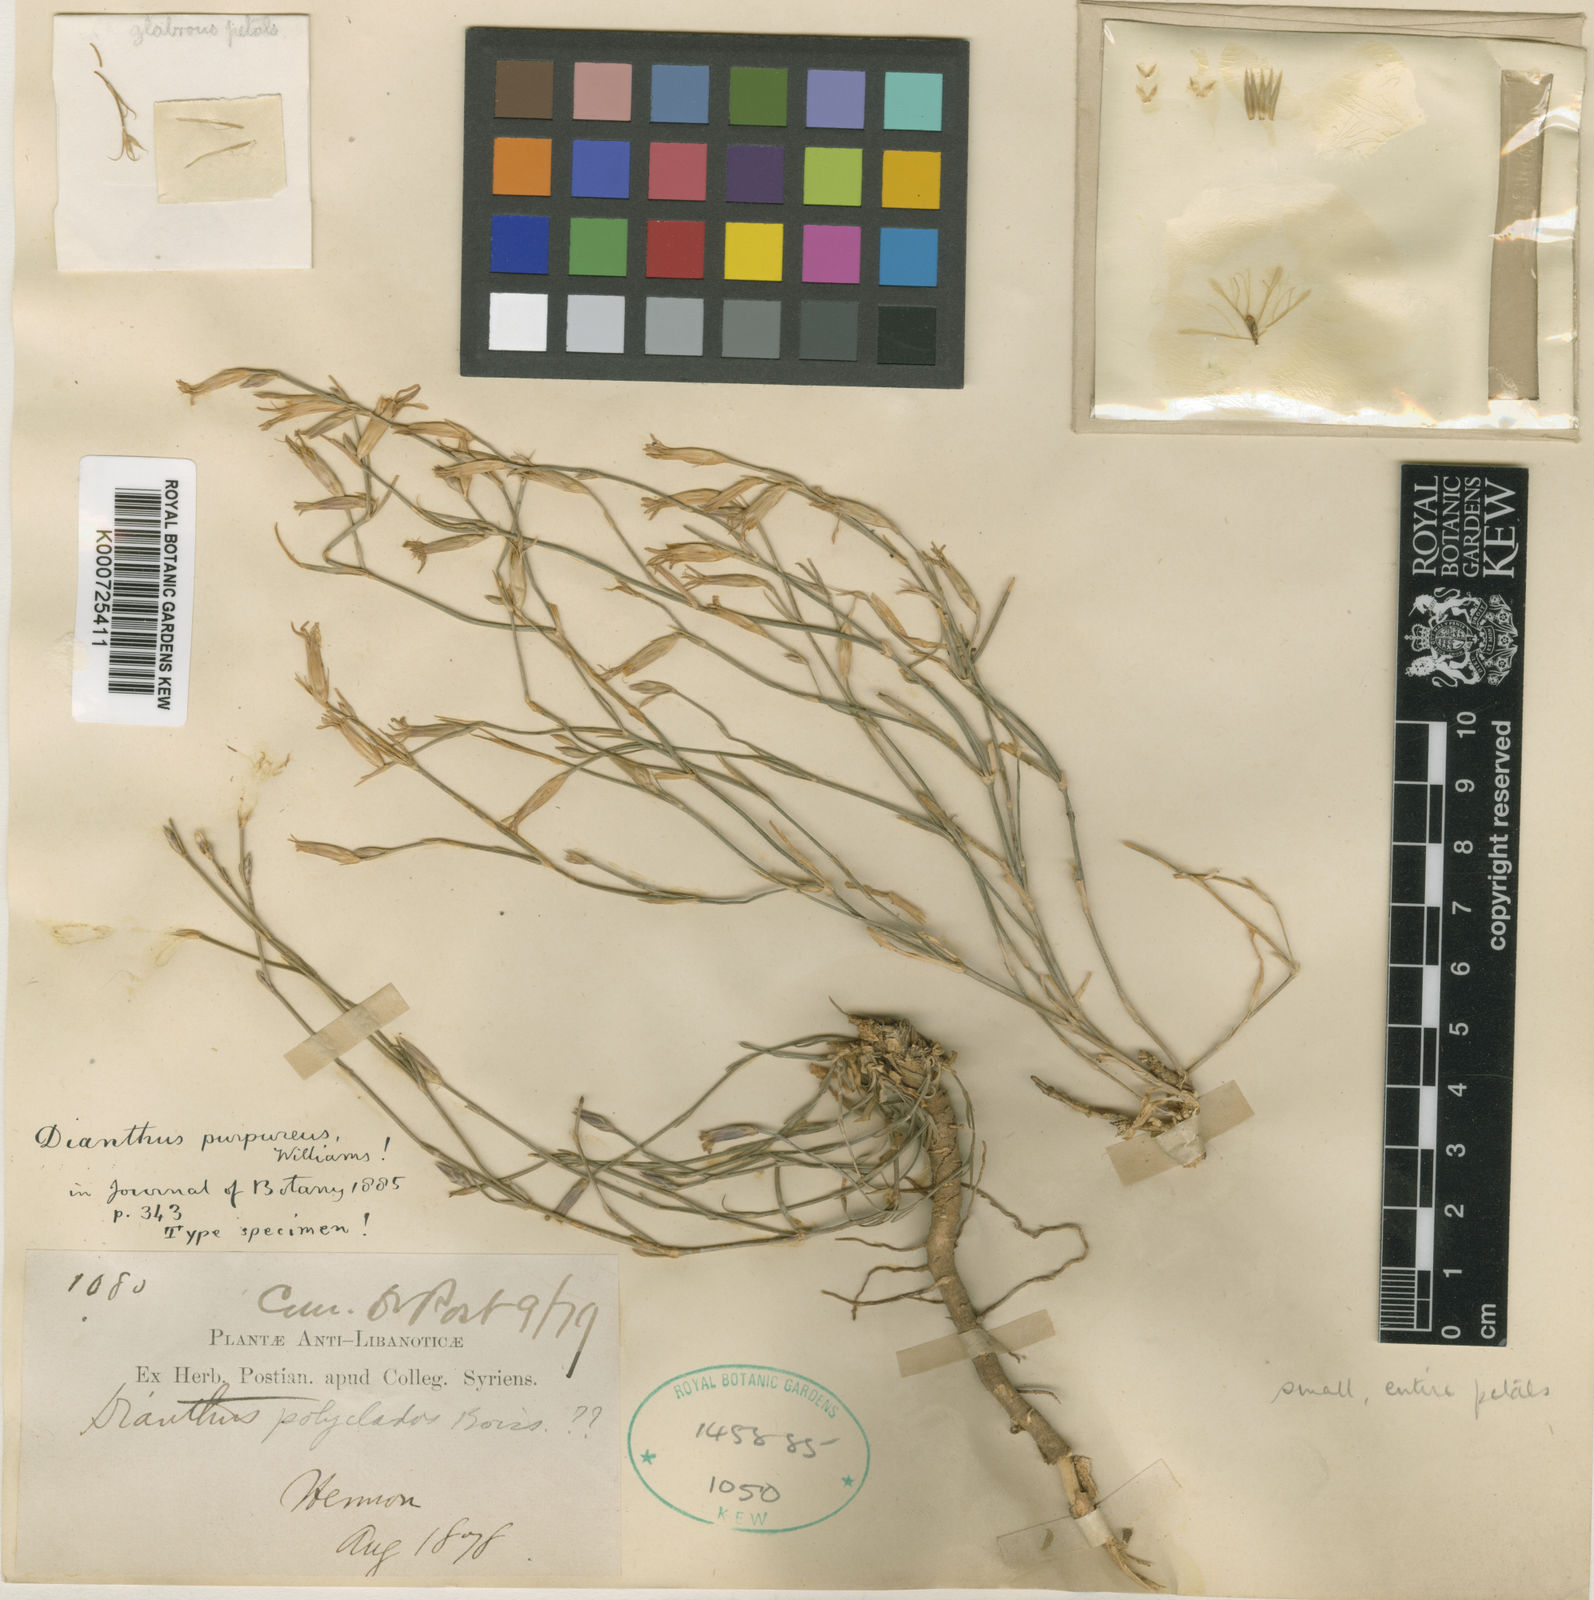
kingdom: Plantae
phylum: Tracheophyta
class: Magnoliopsida
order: Caryophyllales
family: Caryophyllaceae
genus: Dianthus
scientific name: Dianthus purpureus
